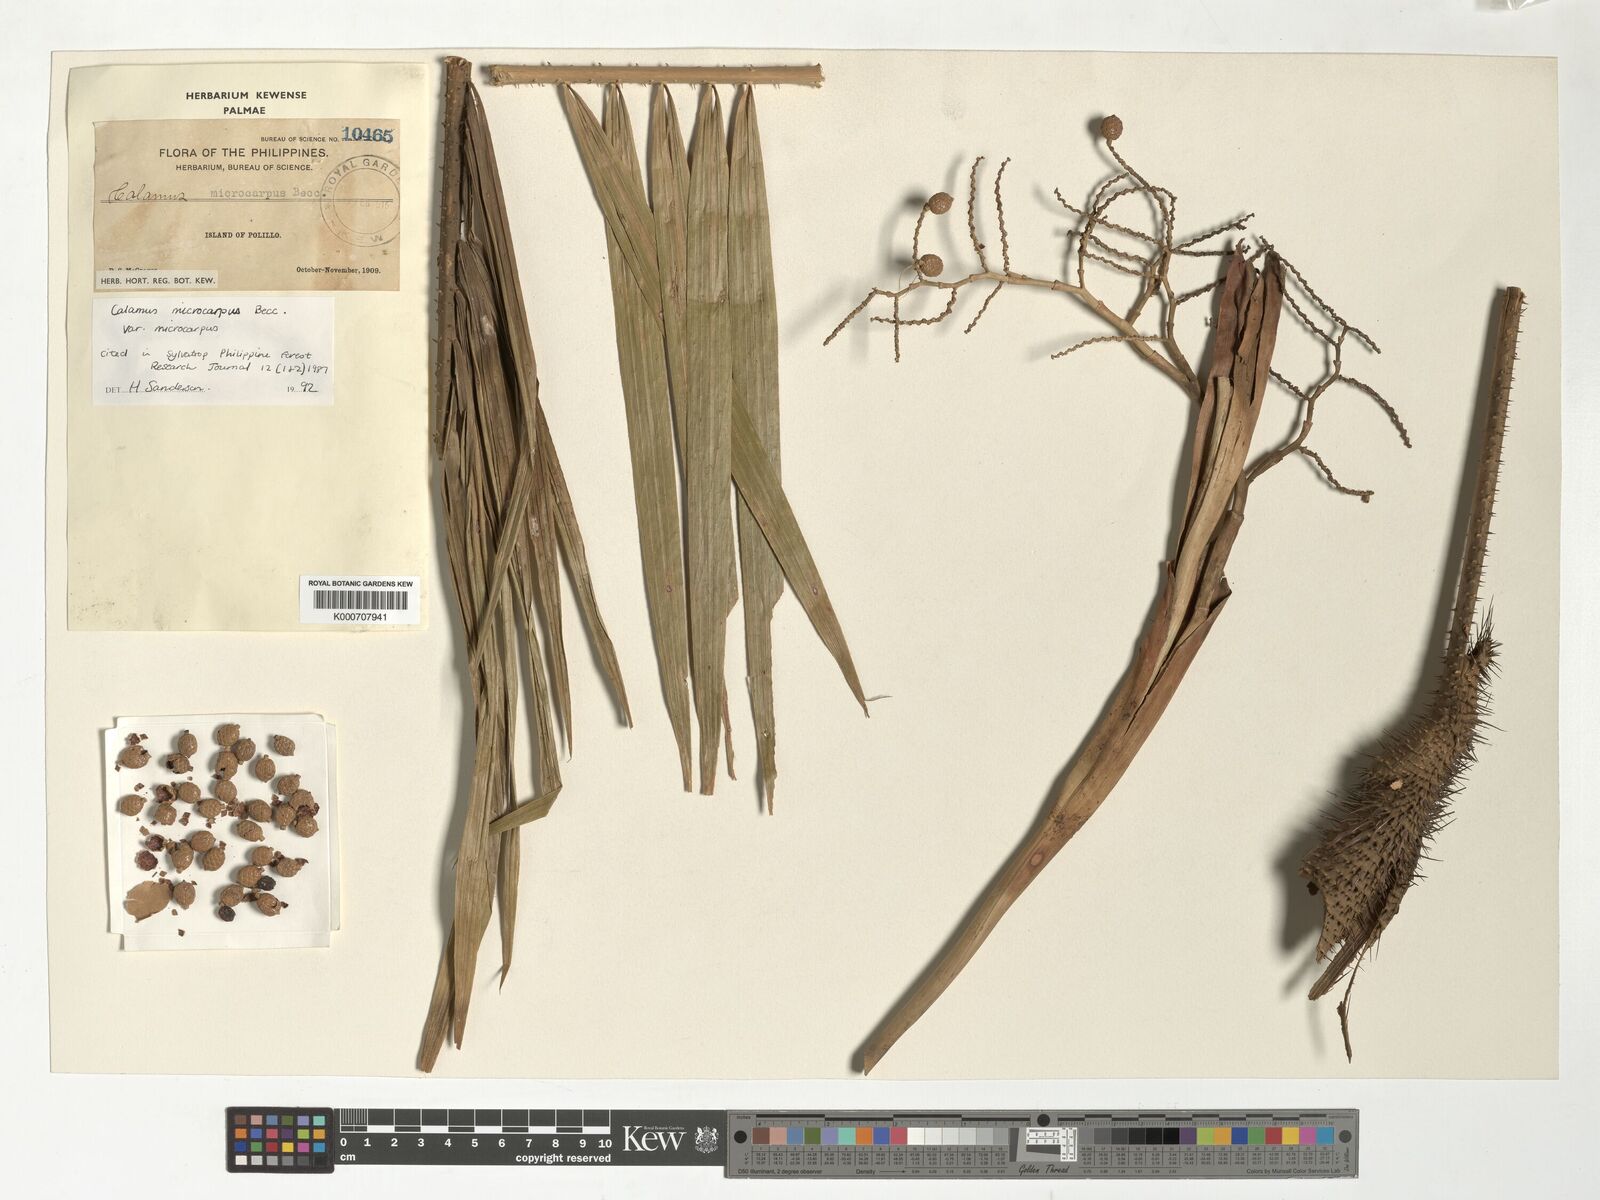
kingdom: Plantae
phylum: Tracheophyta
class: Liliopsida
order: Arecales
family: Arecaceae
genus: Calamus
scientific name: Calamus siphonospathus
